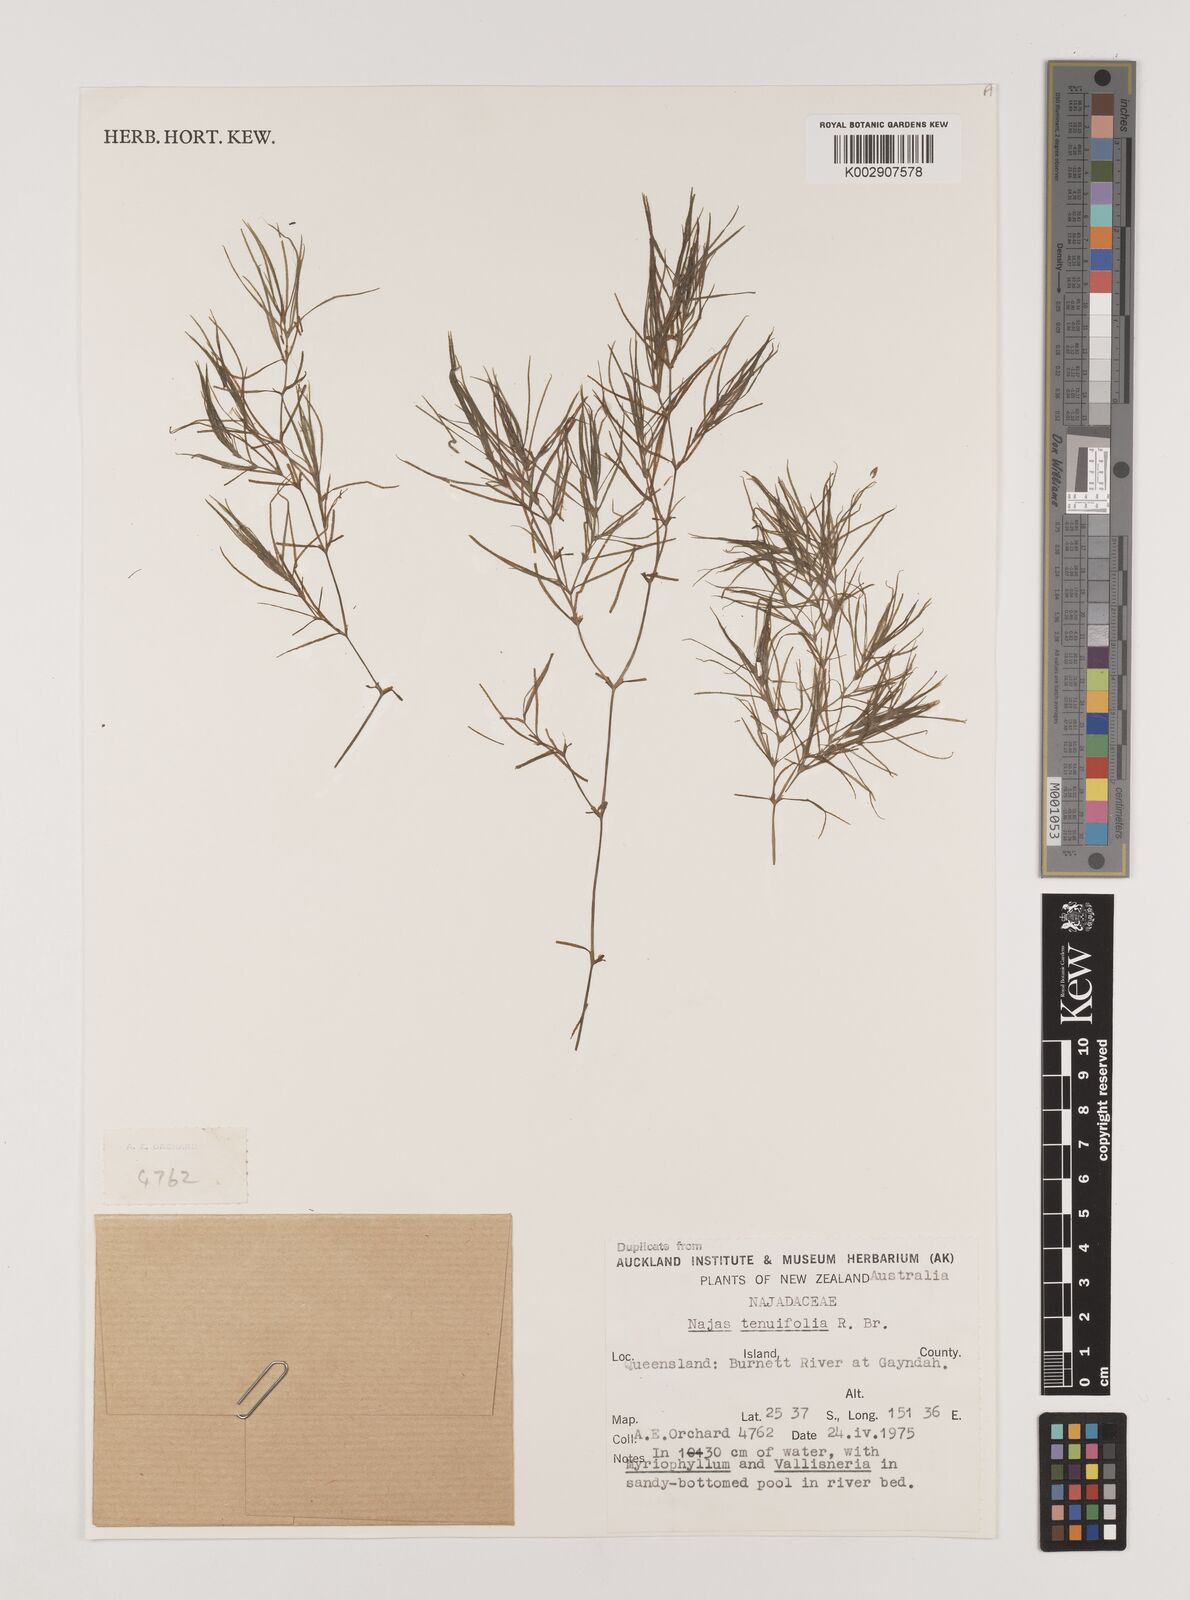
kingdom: Plantae
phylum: Tracheophyta
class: Liliopsida
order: Alismatales
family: Hydrocharitaceae
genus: Najas
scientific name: Najas tenuifolia
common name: Thin-leaved naiad
